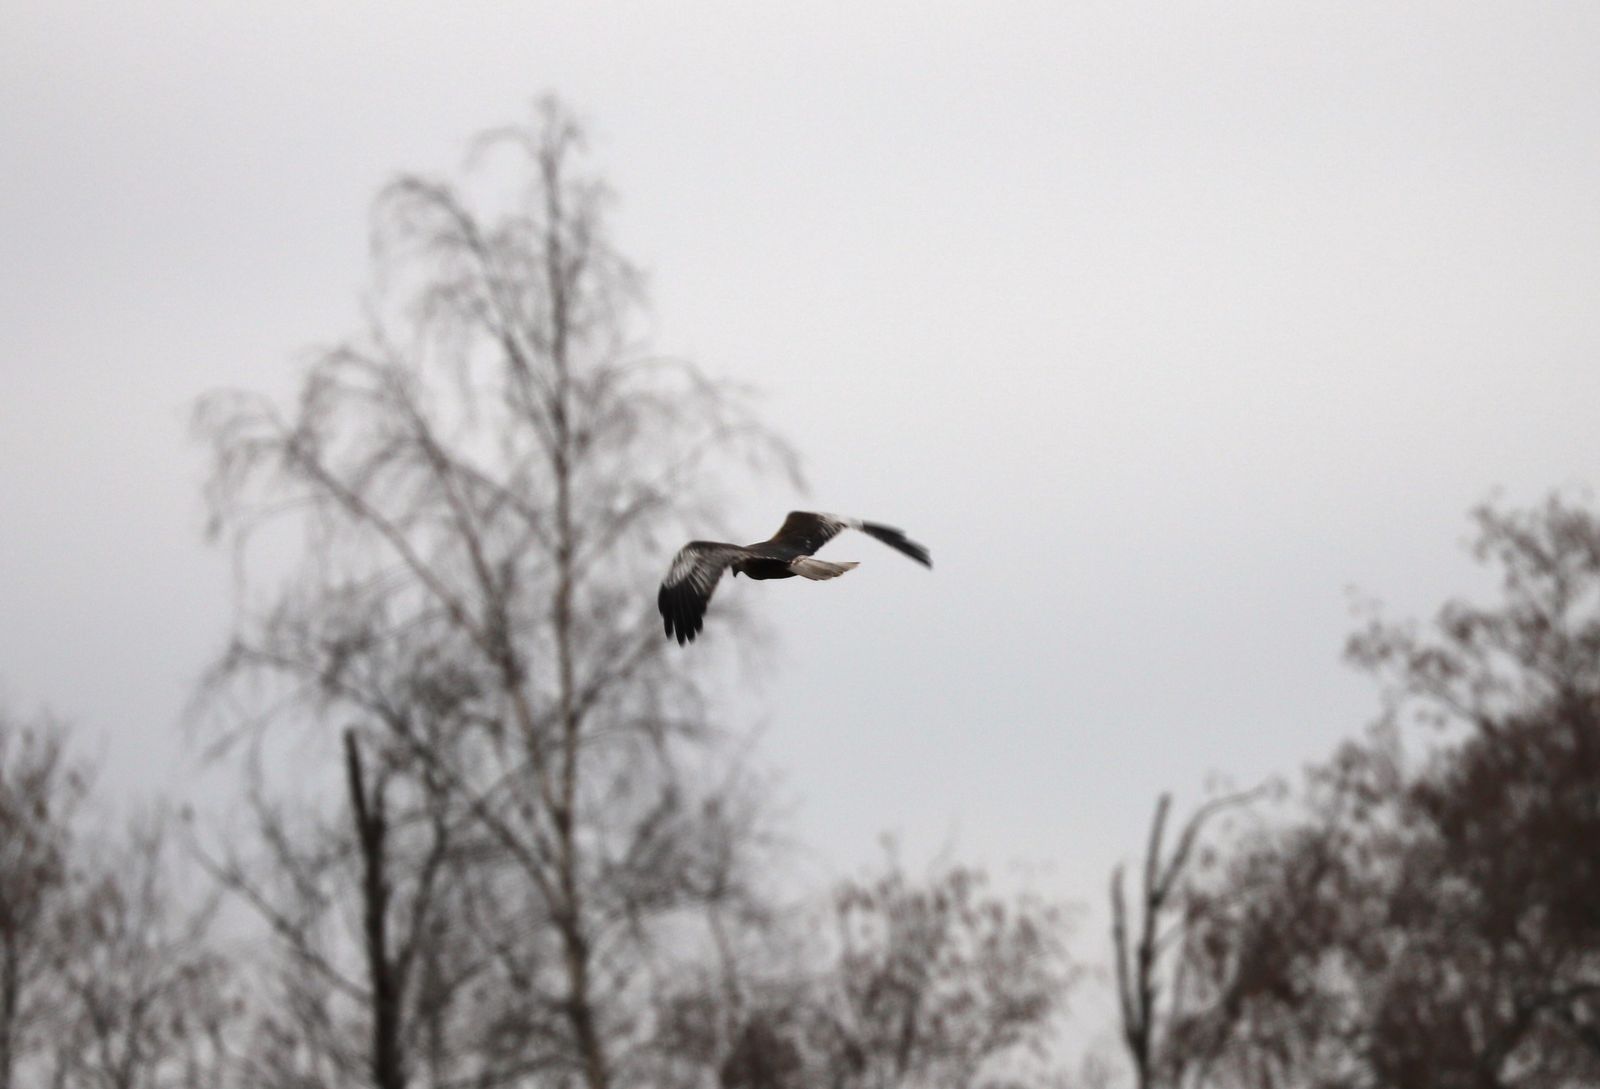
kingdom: Animalia
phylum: Chordata
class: Aves
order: Accipitriformes
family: Accipitridae
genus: Circus
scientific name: Circus aeruginosus
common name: Western marsh harrier
